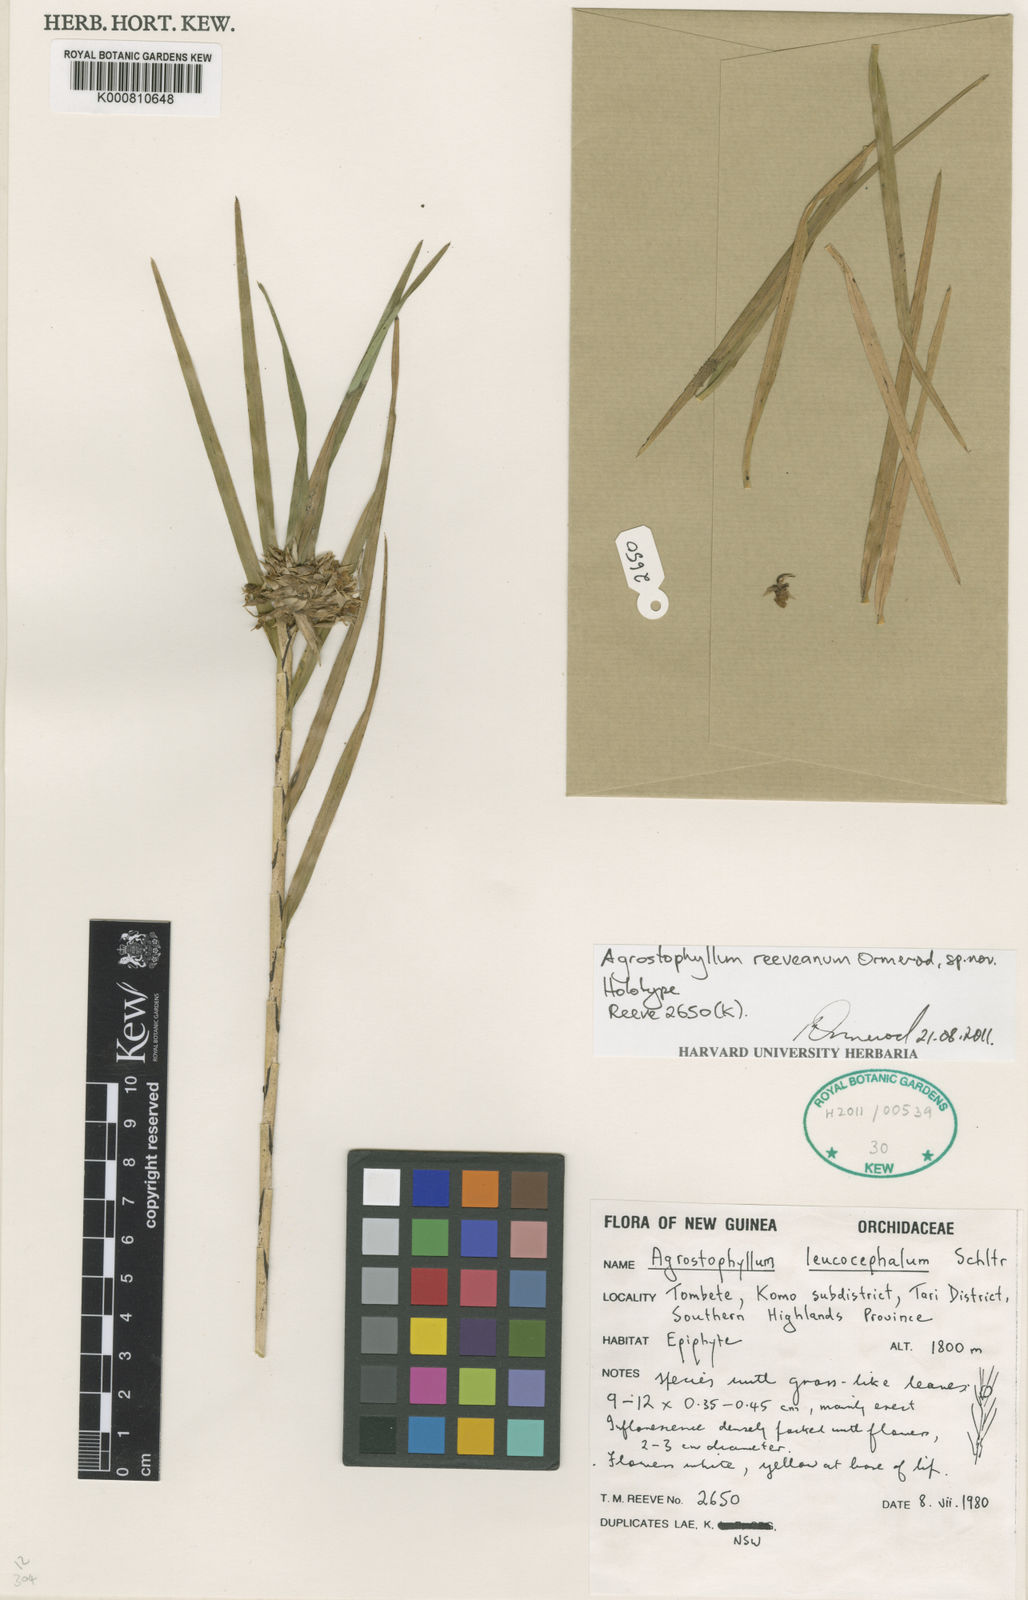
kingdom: Plantae
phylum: Tracheophyta
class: Liliopsida
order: Asparagales
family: Orchidaceae
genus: Agrostophyllum
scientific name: Agrostophyllum reeveanum
